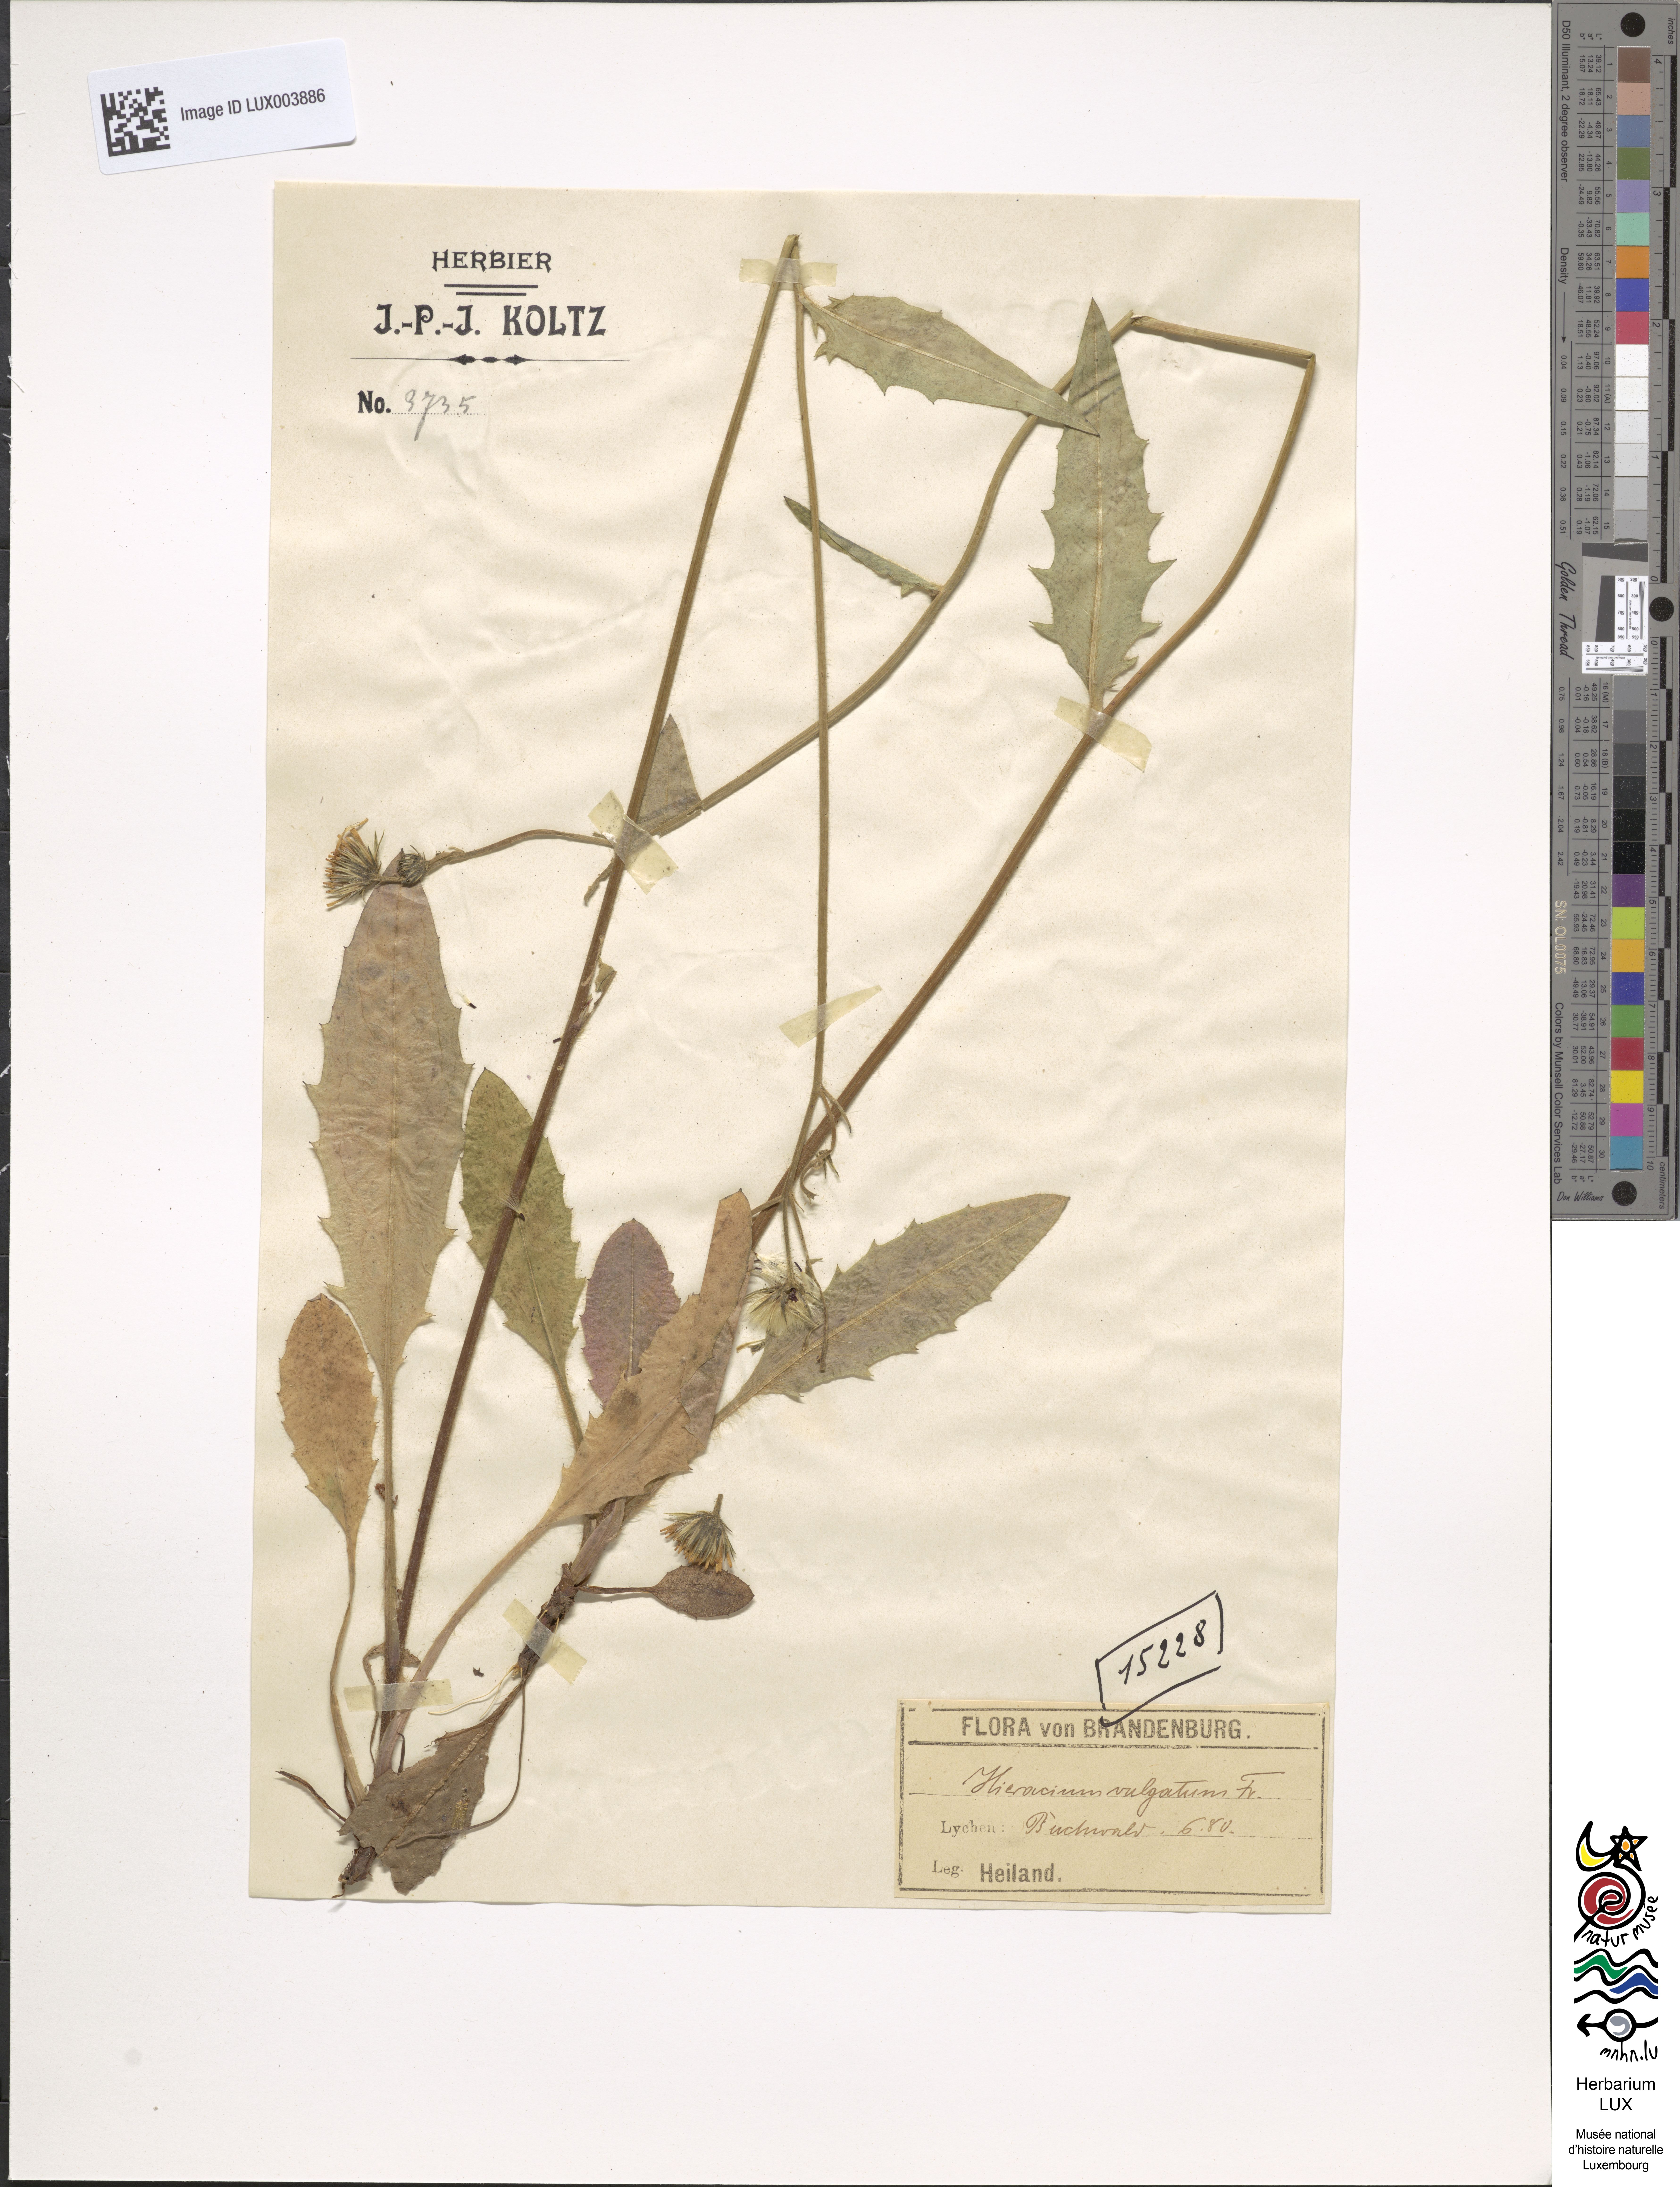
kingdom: Plantae
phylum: Tracheophyta
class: Magnoliopsida
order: Asterales
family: Asteraceae
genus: Hieracium
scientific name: Hieracium lachenalii
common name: Common hawkweed
